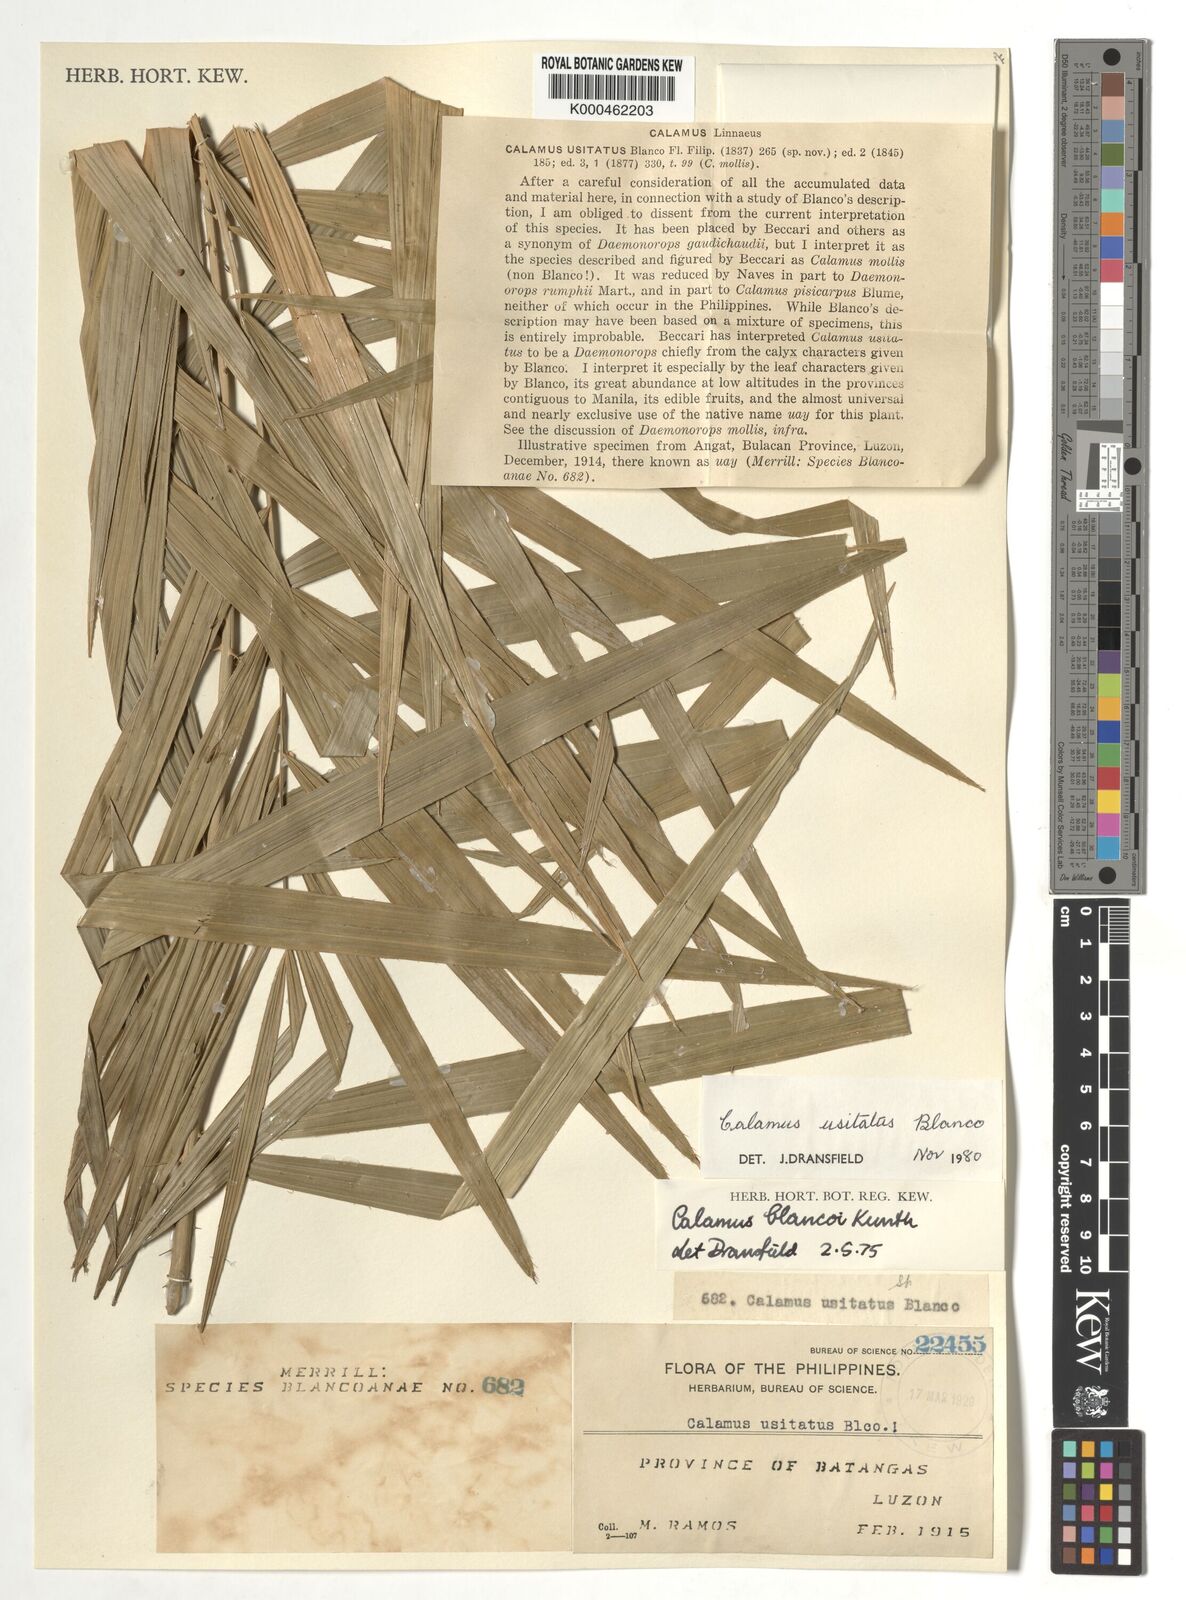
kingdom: Plantae
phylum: Tracheophyta
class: Liliopsida
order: Arecales
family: Arecaceae
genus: Calamus
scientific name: Calamus usitatus
